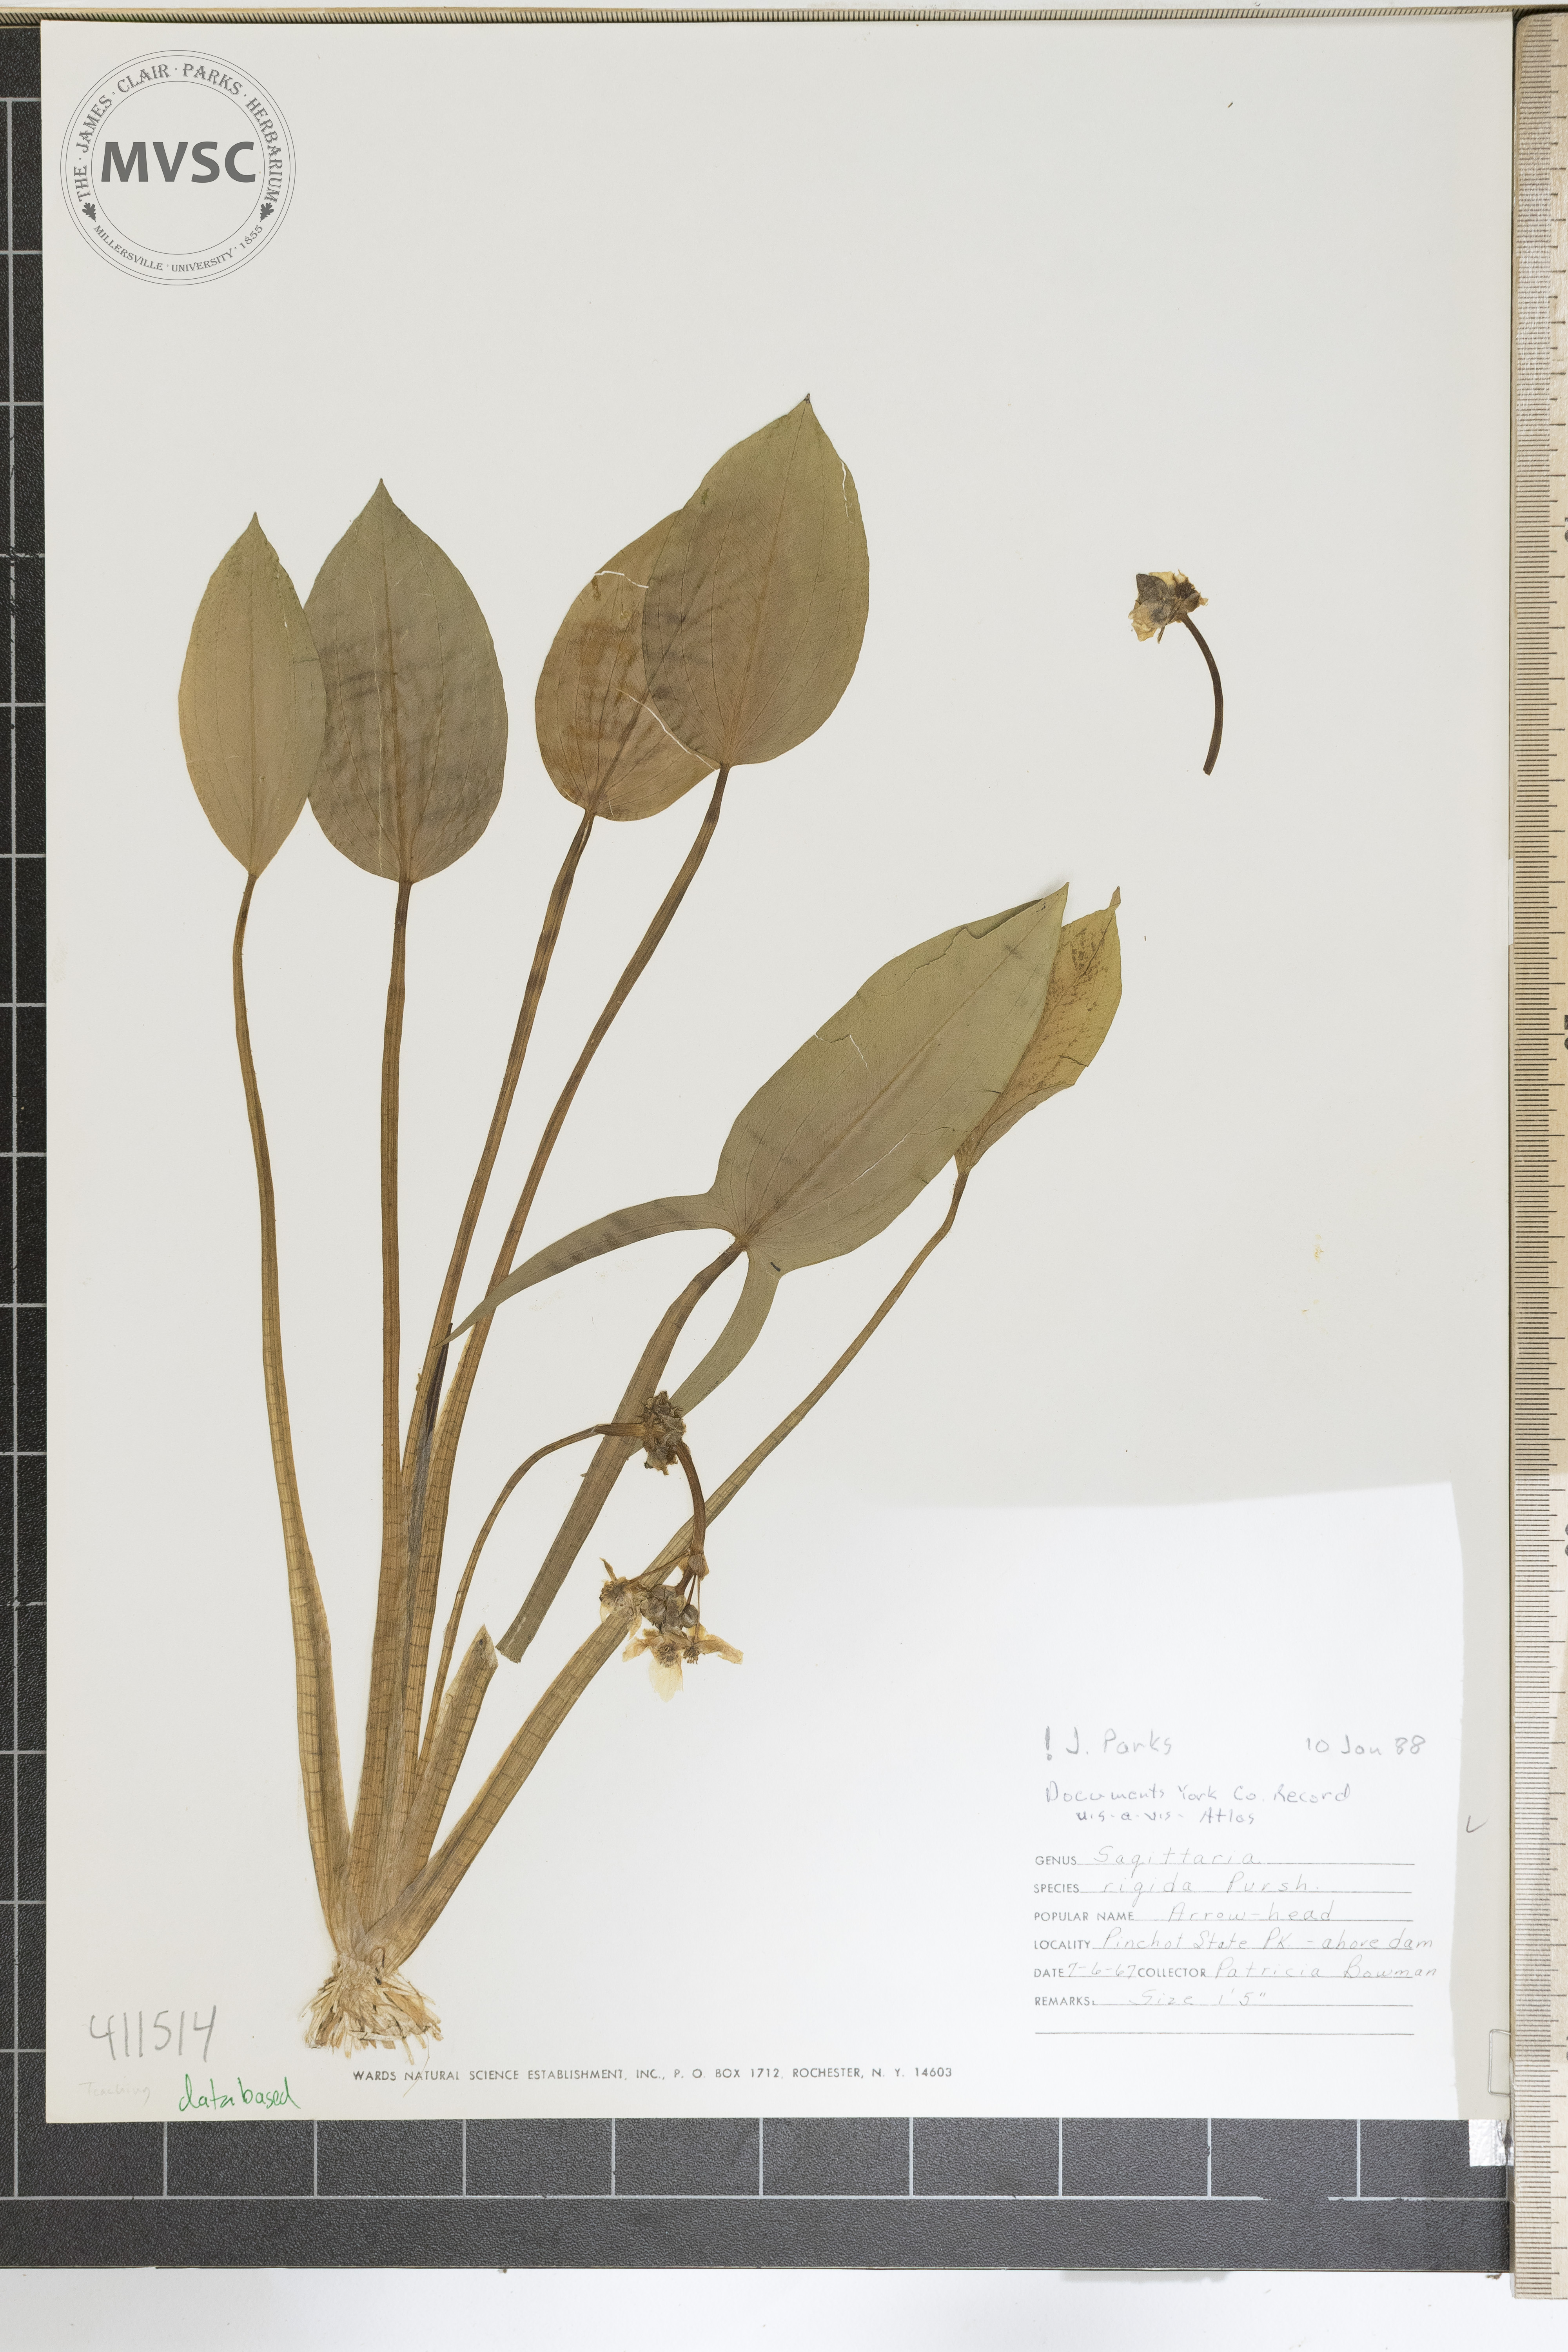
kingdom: Plantae
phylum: Tracheophyta
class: Liliopsida
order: Alismatales
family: Alismataceae
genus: Sagittaria
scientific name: Sagittaria rigida
